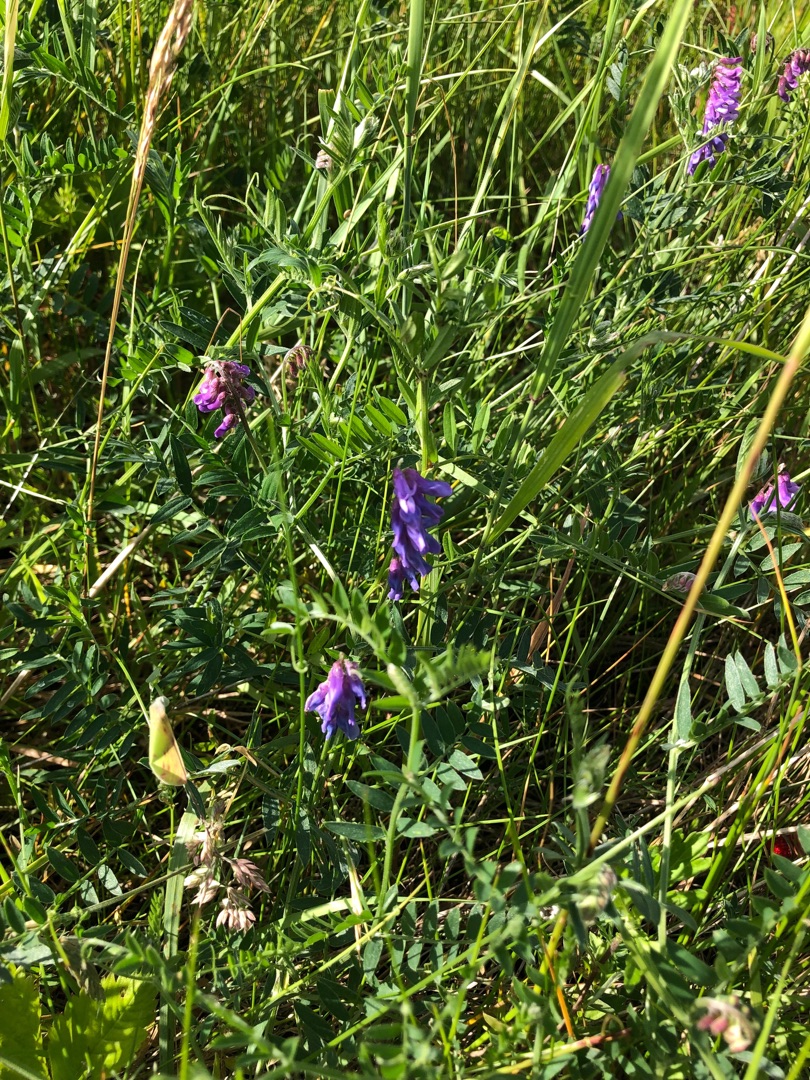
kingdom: Plantae
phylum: Tracheophyta
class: Magnoliopsida
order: Fabales
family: Fabaceae
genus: Vicia
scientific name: Vicia cracca
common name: Muse-vikke
